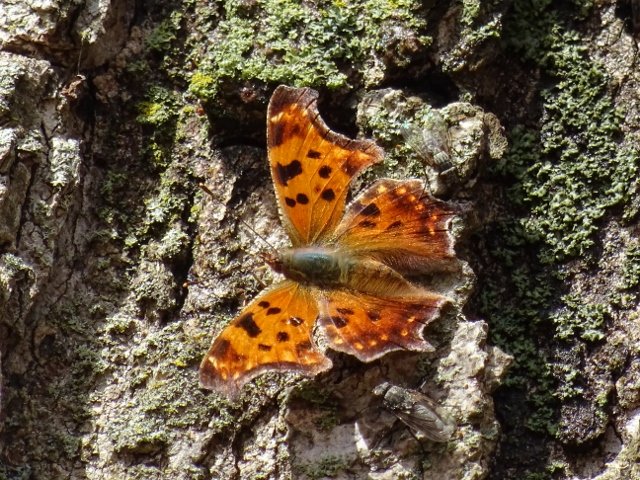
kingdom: Animalia
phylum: Arthropoda
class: Insecta
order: Lepidoptera
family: Nymphalidae
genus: Polygonia
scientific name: Polygonia comma
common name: Eastern Comma
